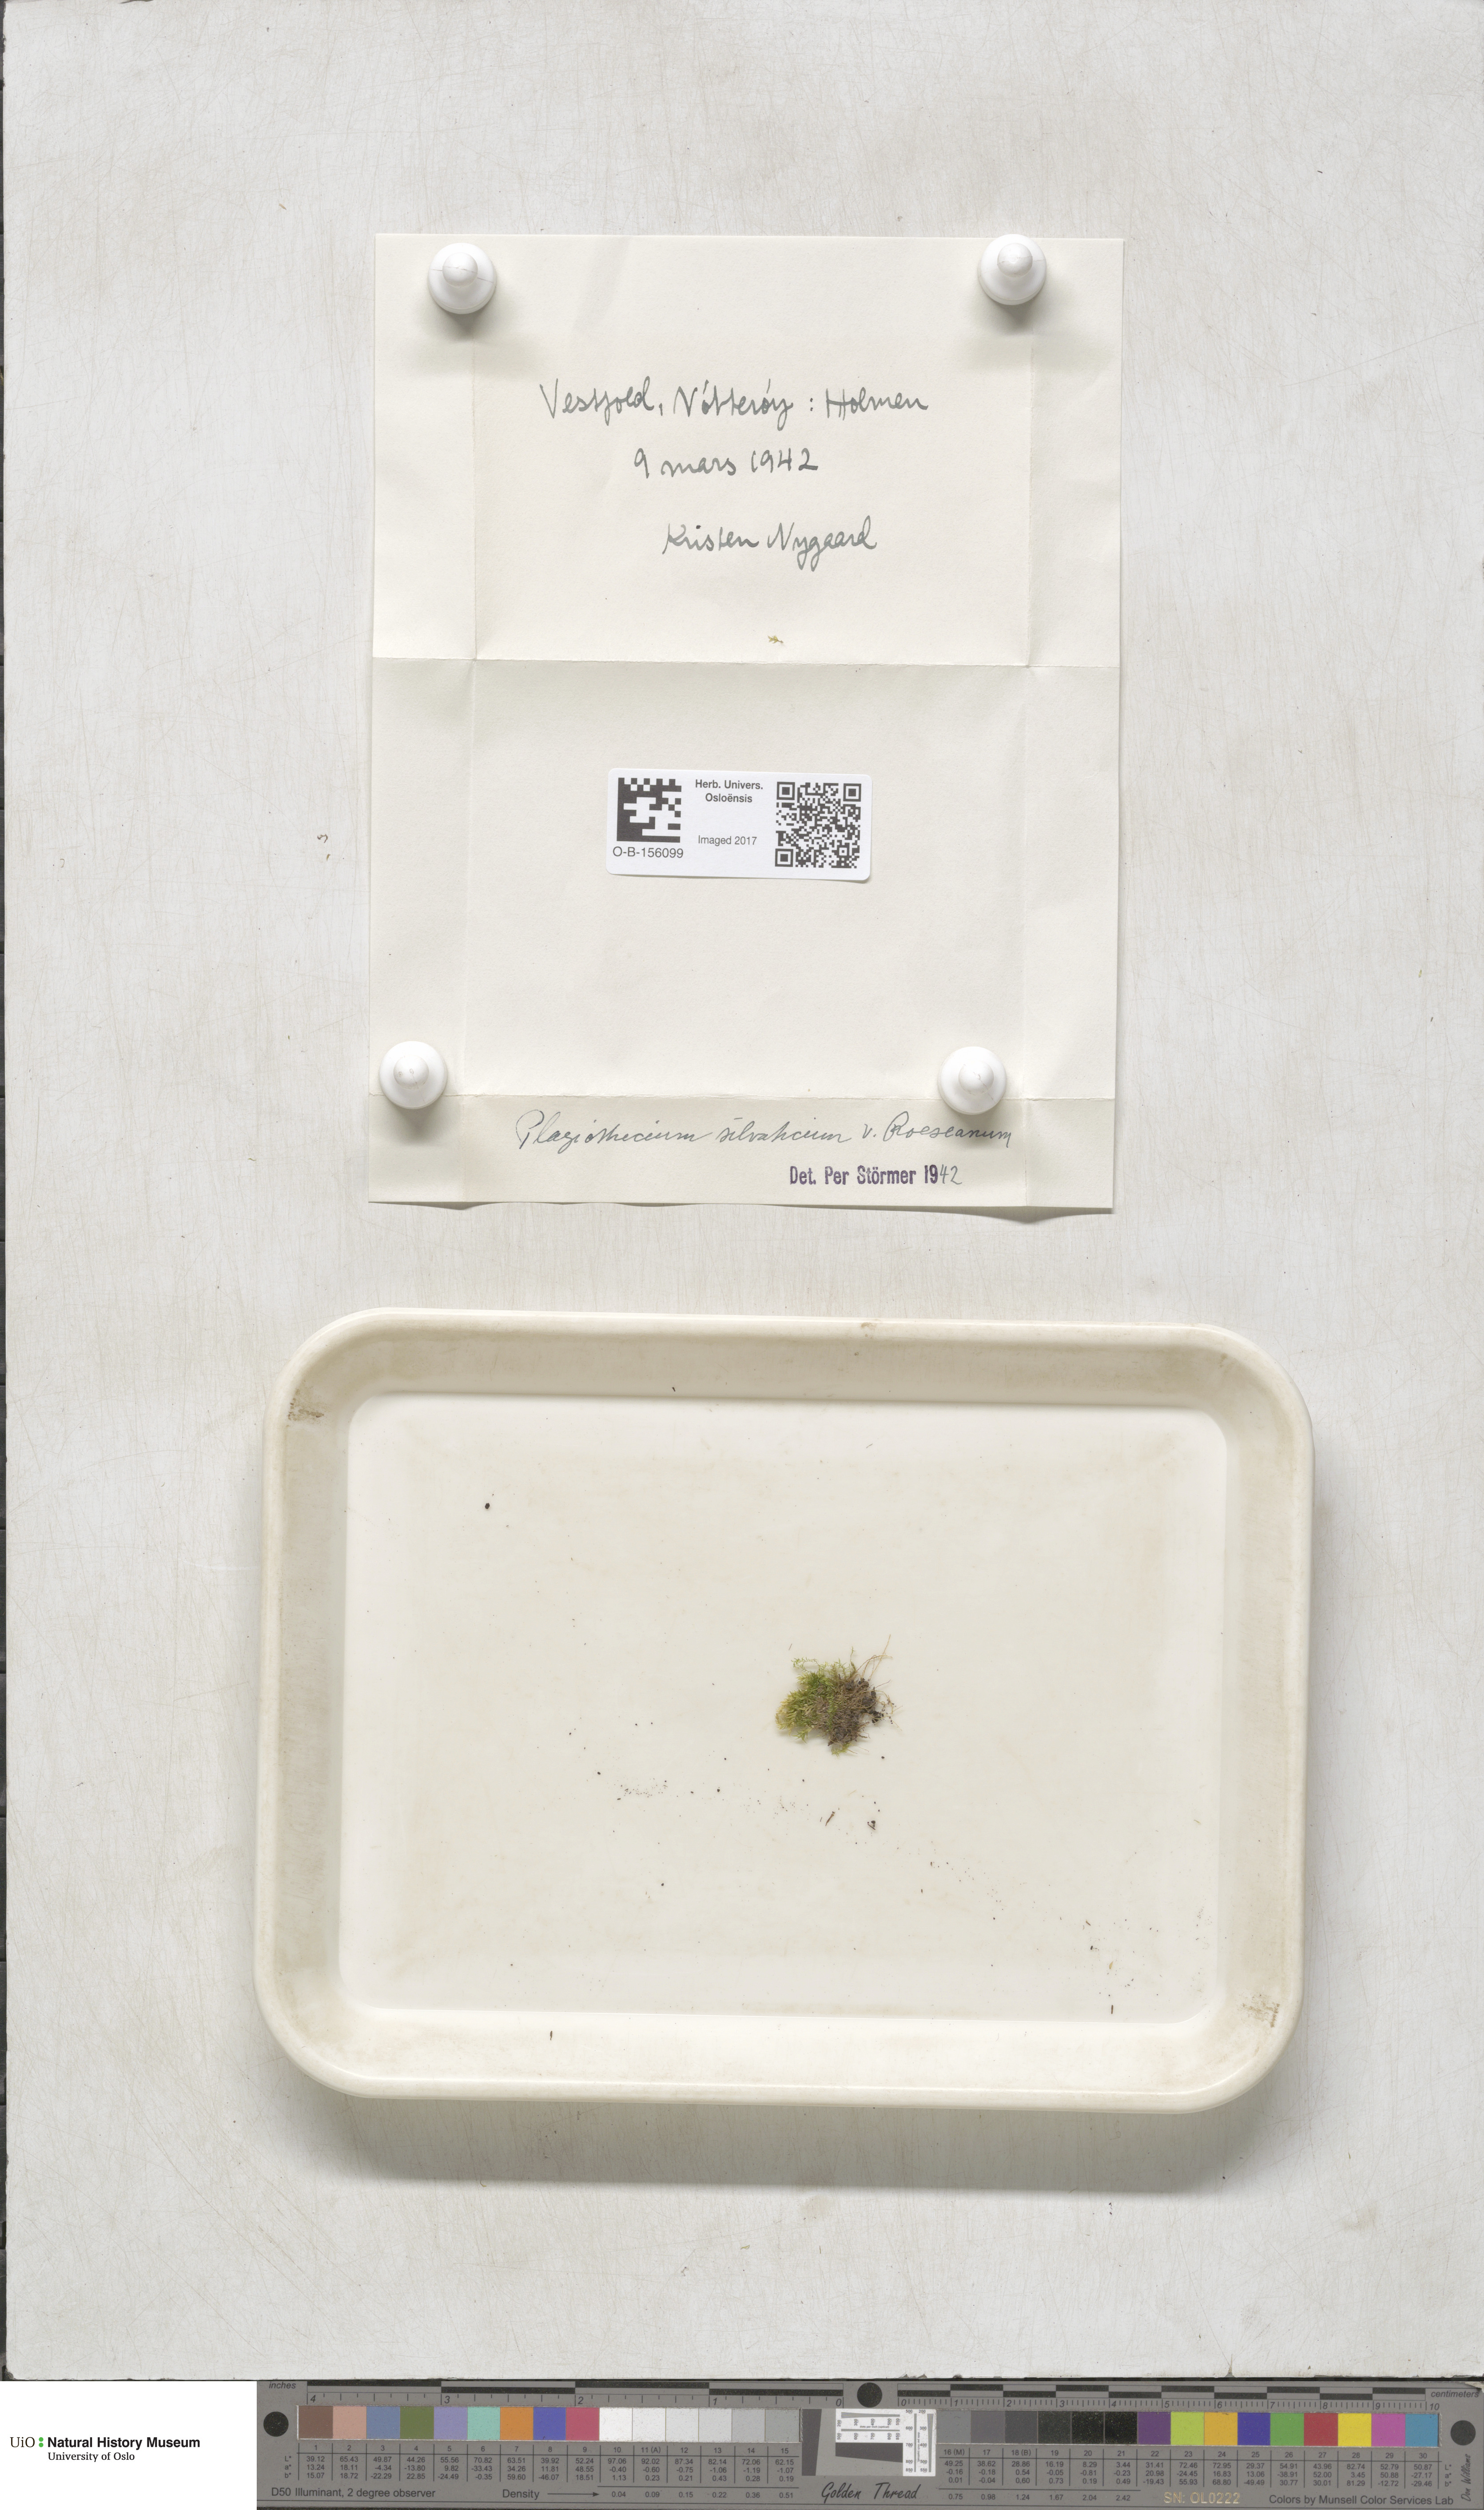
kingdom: Plantae
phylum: Bryophyta
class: Bryopsida
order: Hypnales
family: Plagiotheciaceae
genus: Plagiothecium
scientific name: Plagiothecium nemorale
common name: Woodsy silk-moss
